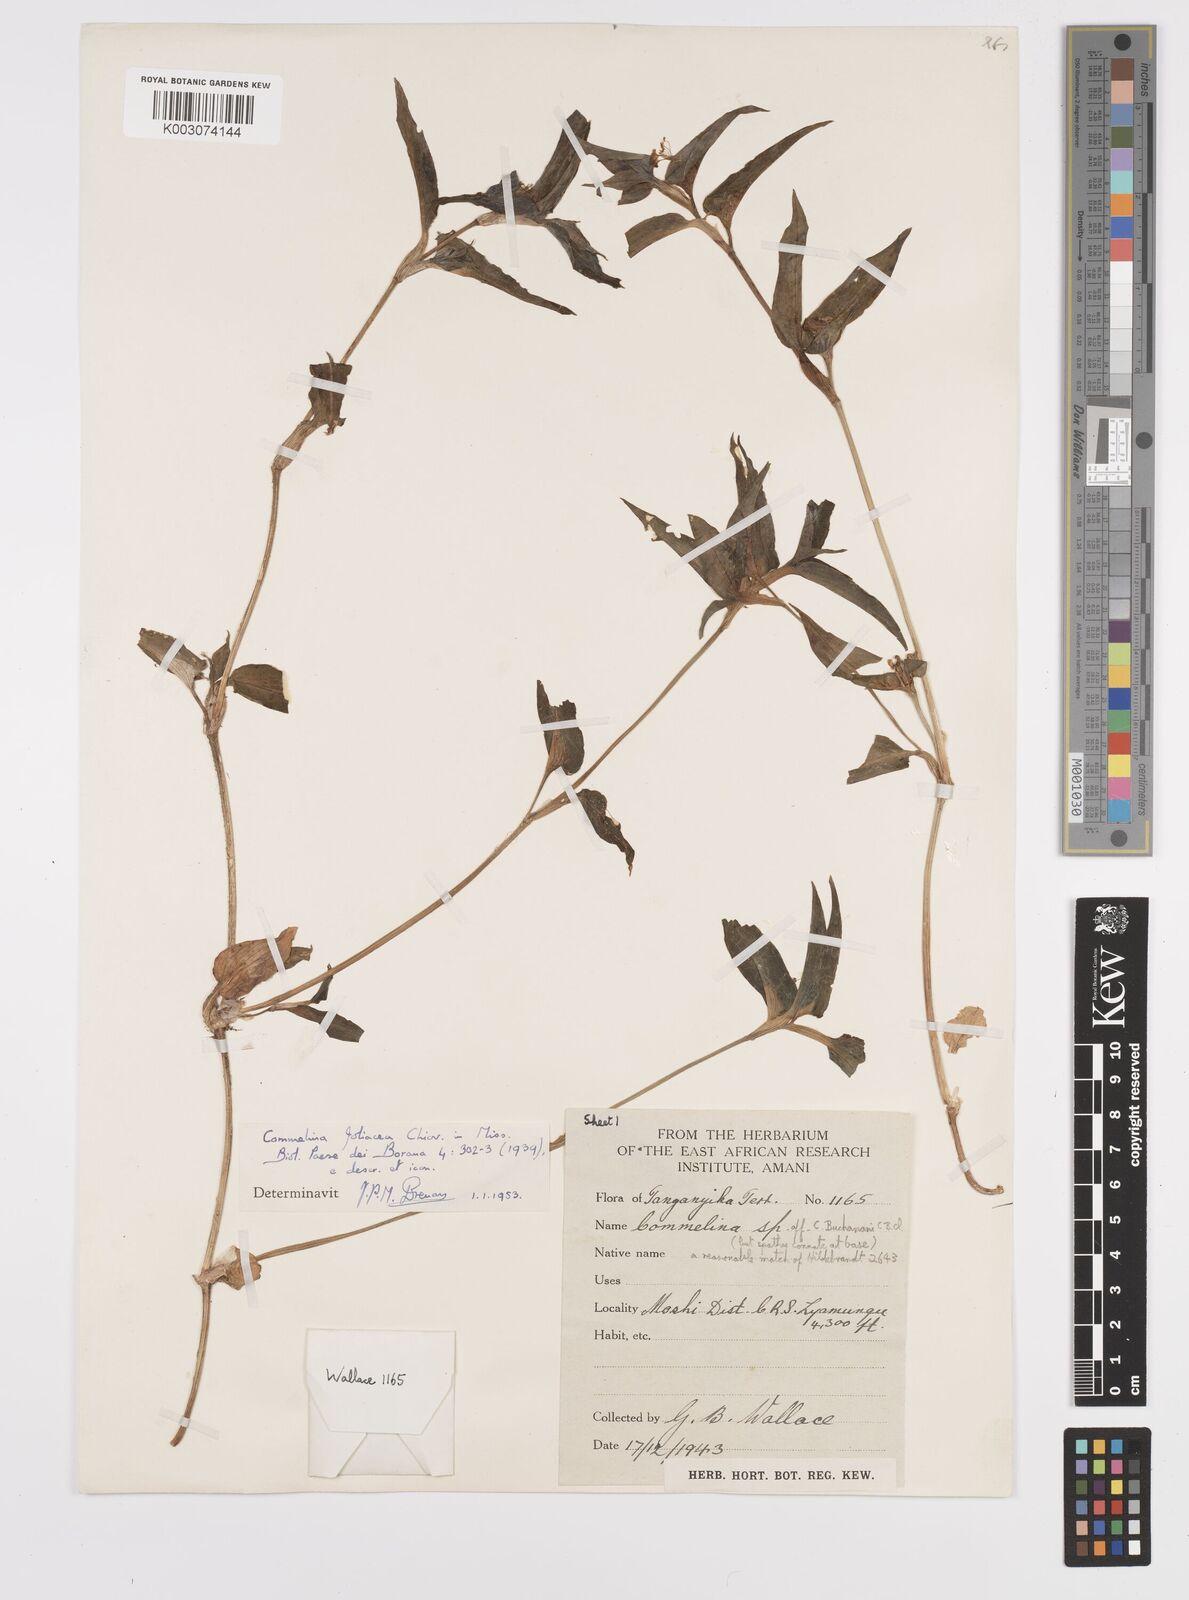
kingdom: Plantae
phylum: Tracheophyta
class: Liliopsida
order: Commelinales
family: Commelinaceae
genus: Commelina
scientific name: Commelina foliacea
